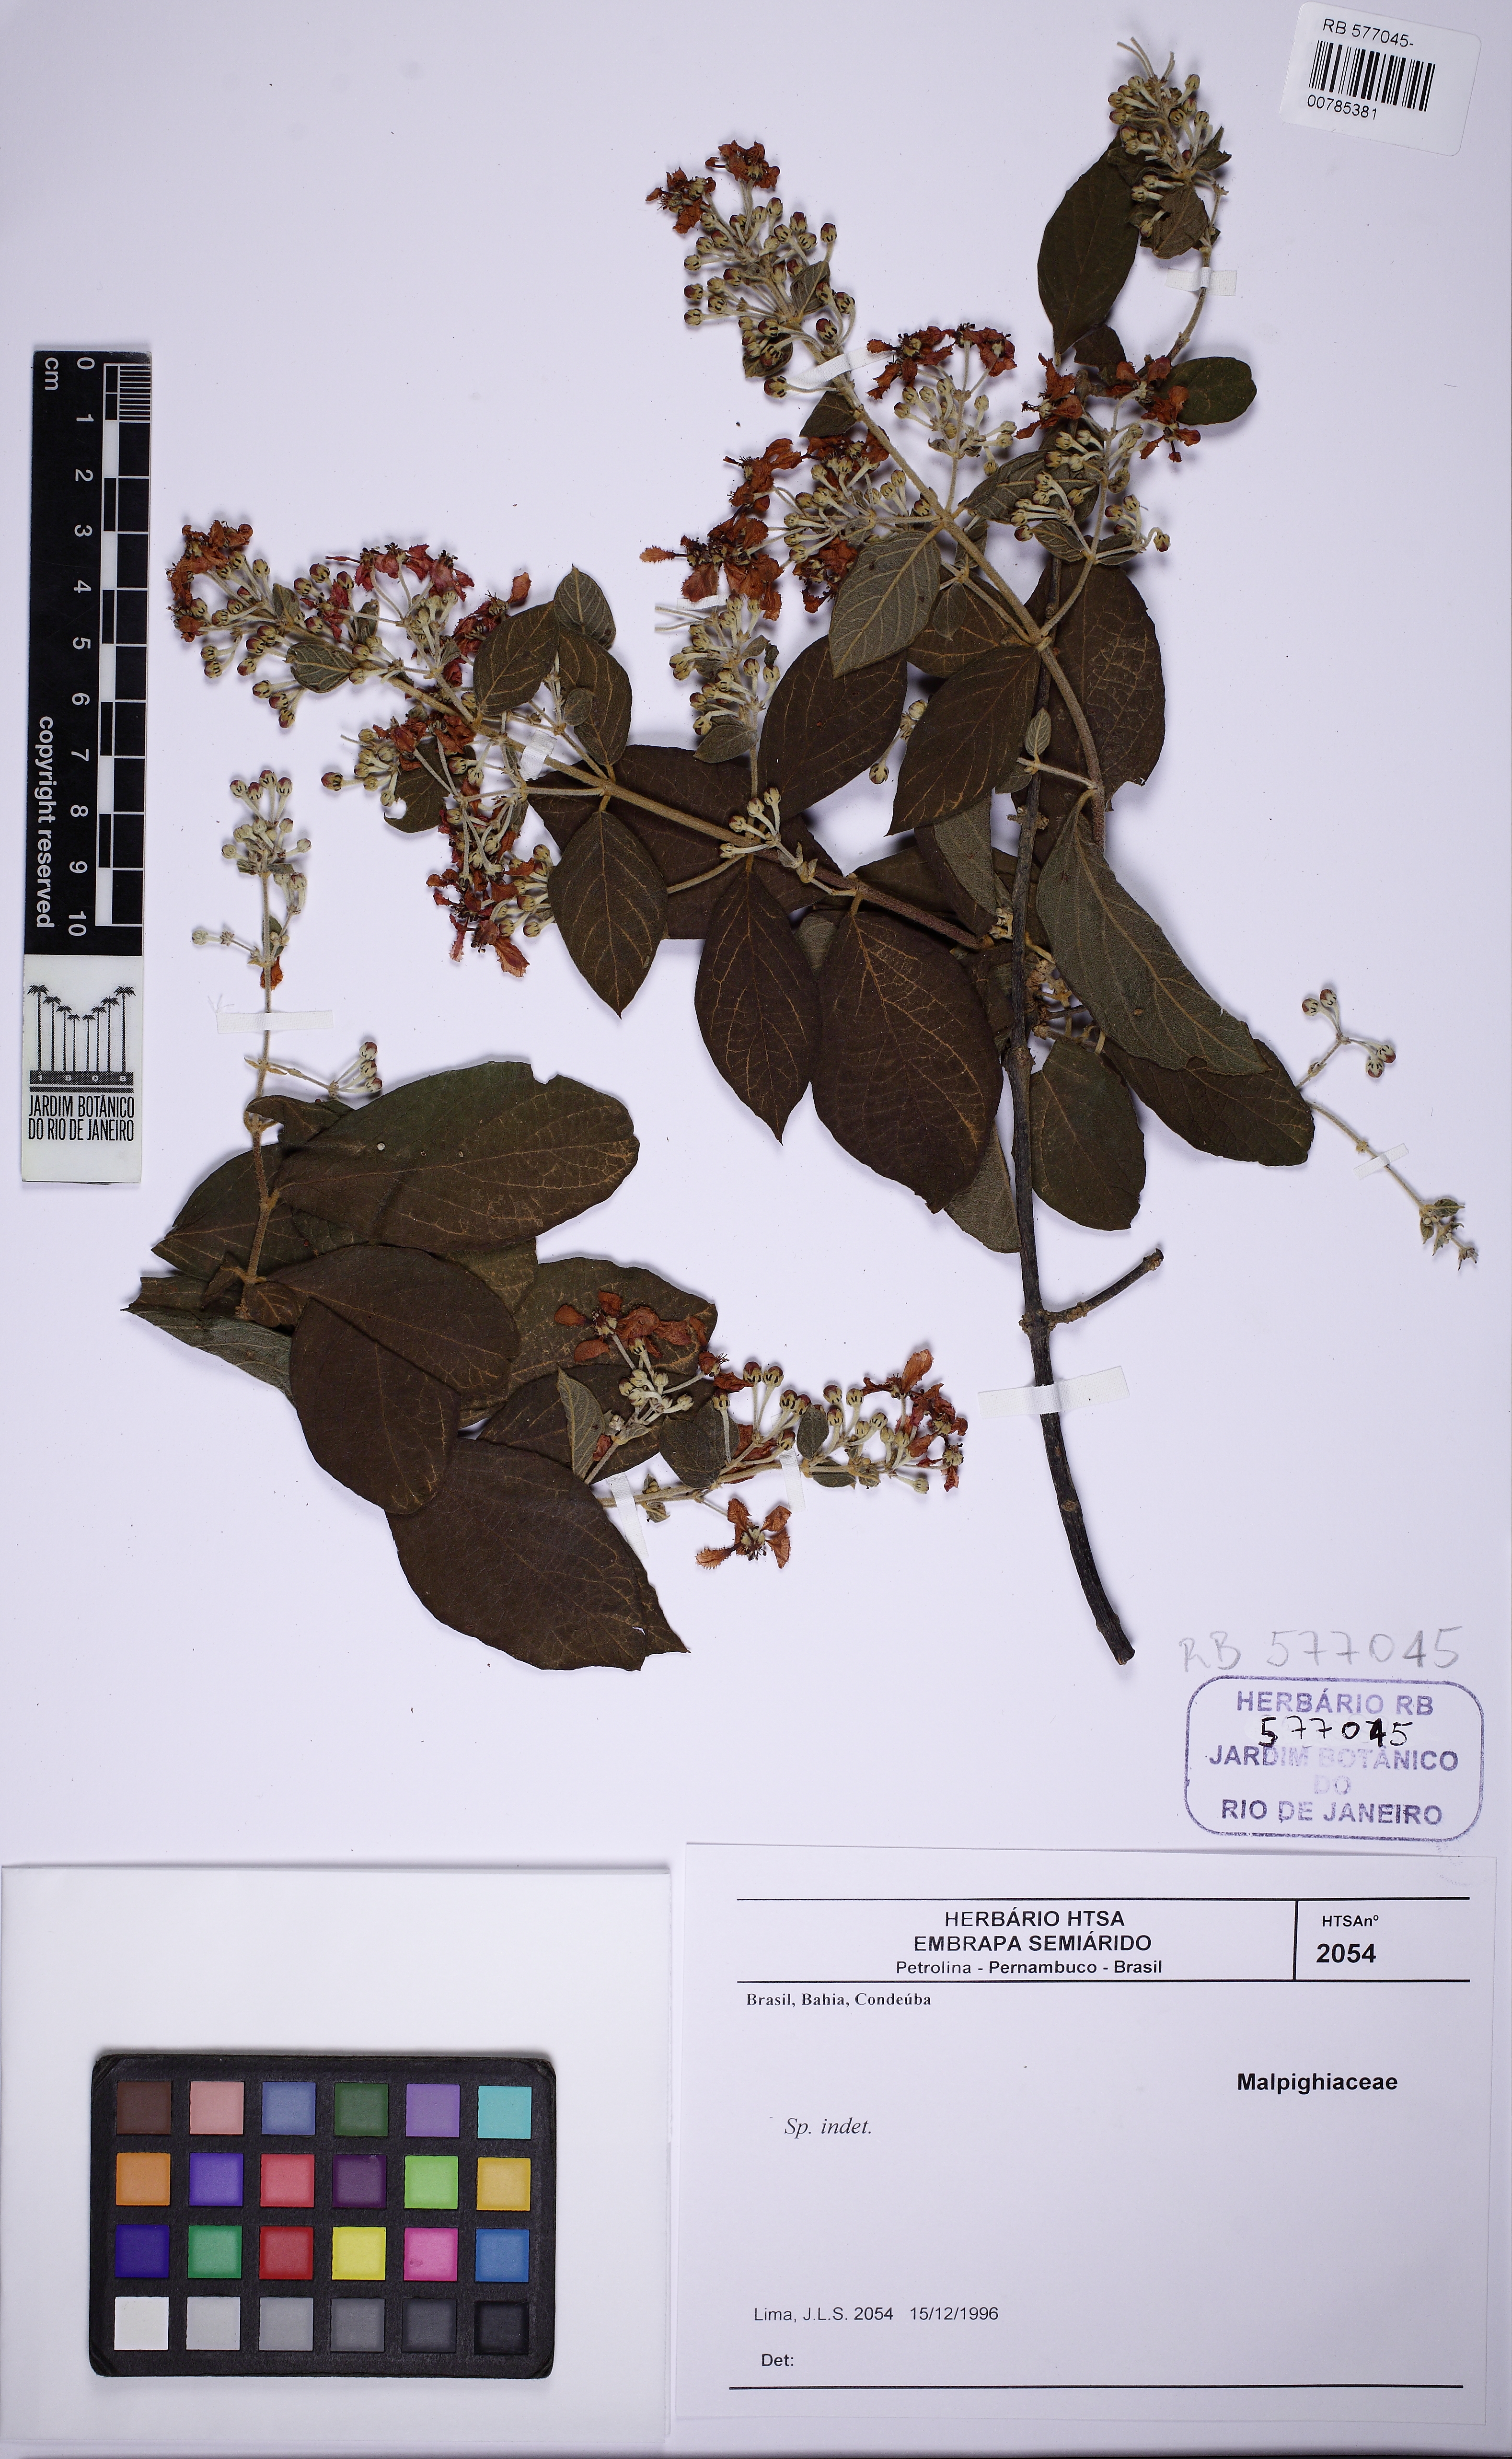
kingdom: Plantae
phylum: Tracheophyta
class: Magnoliopsida
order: Malpighiales
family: Malpighiaceae
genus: Banisteriopsis
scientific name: Banisteriopsis
